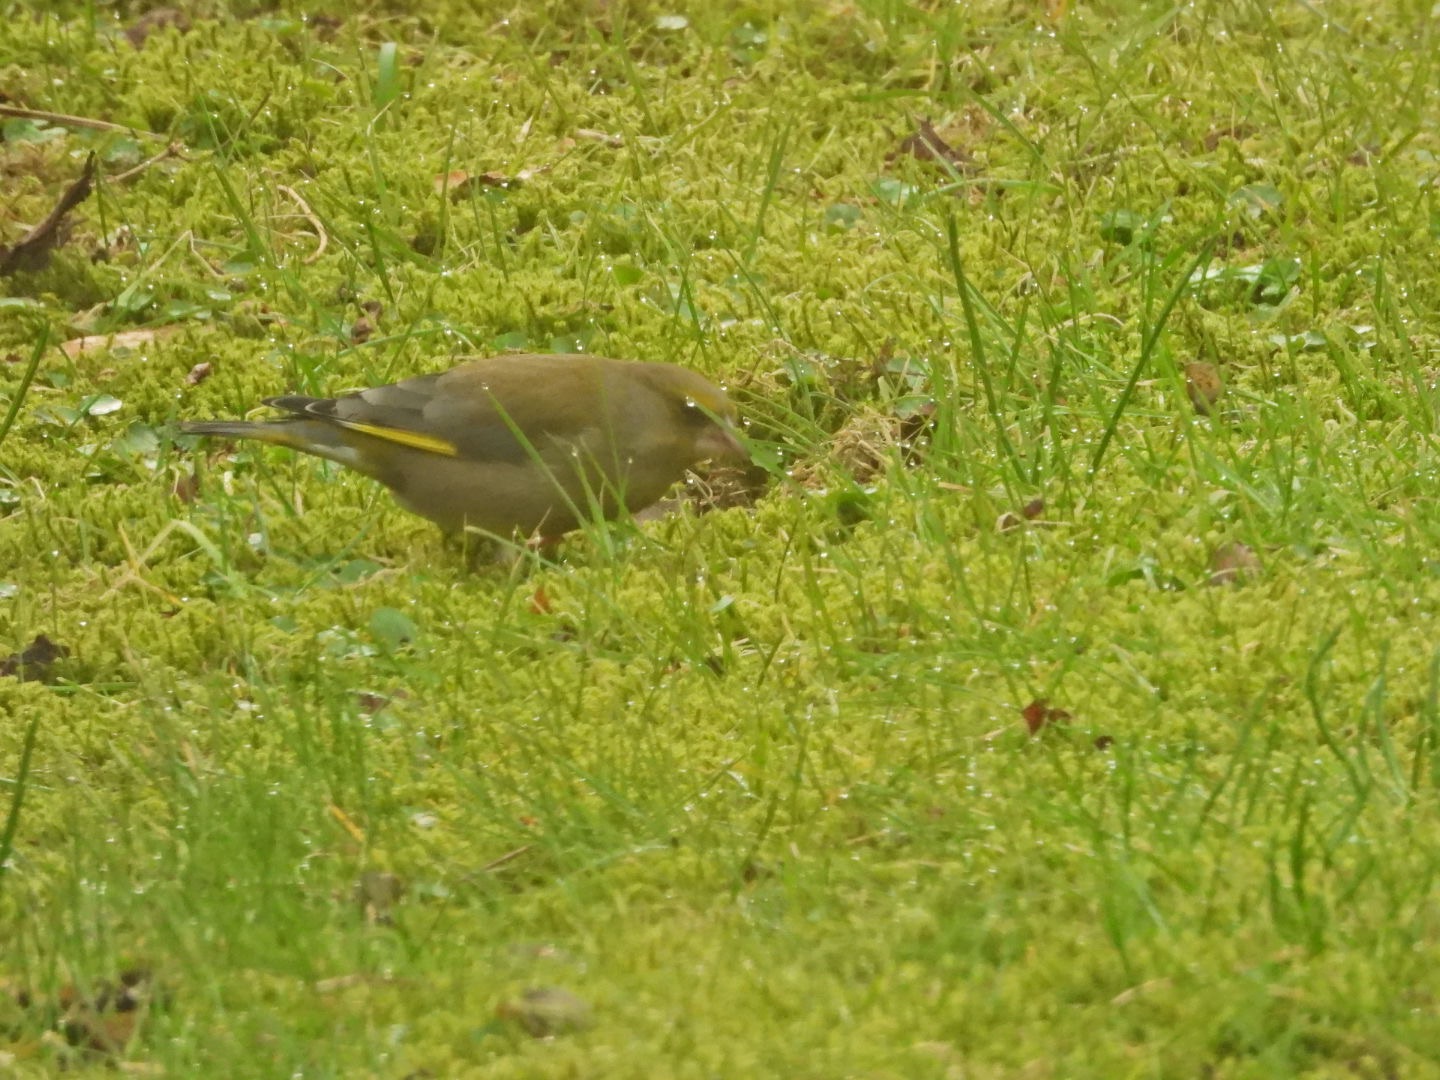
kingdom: Plantae
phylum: Tracheophyta
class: Liliopsida
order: Poales
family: Poaceae
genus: Chloris
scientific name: Chloris chloris
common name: Grønirisk
